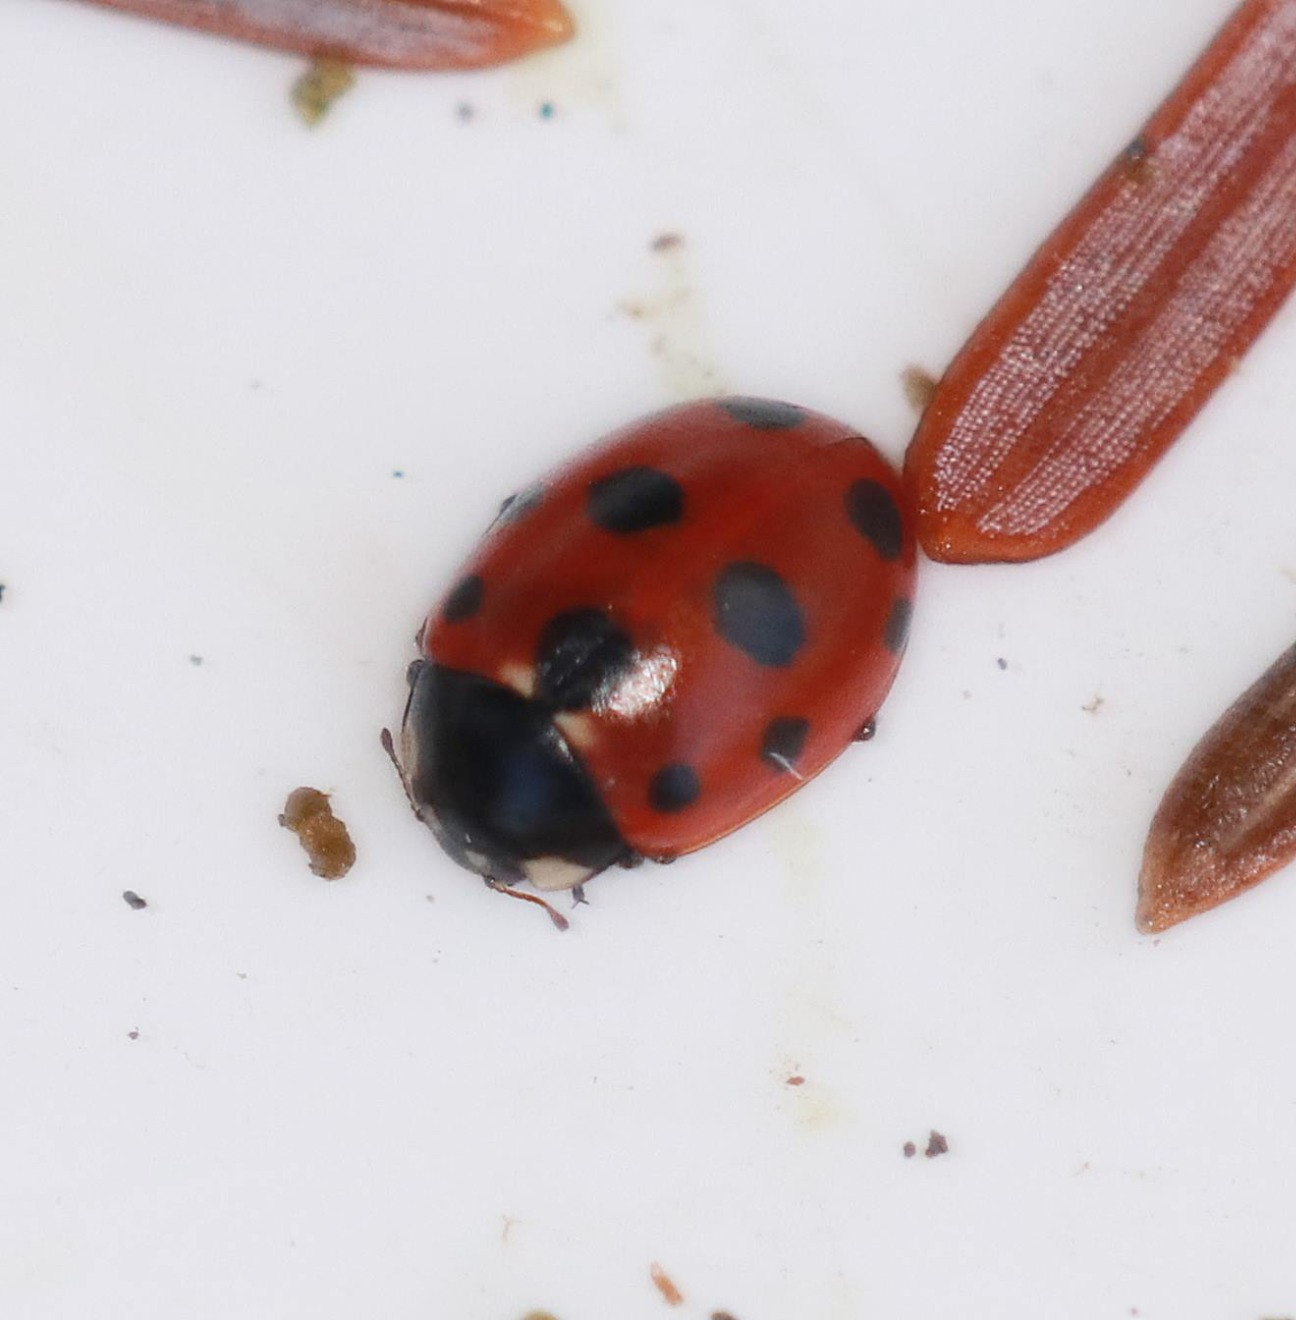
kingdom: Animalia
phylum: Arthropoda
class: Insecta
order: Coleoptera
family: Coccinellidae
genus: Coccinella
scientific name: Coccinella undecimpunctata
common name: Elleveplettet mariehøne
